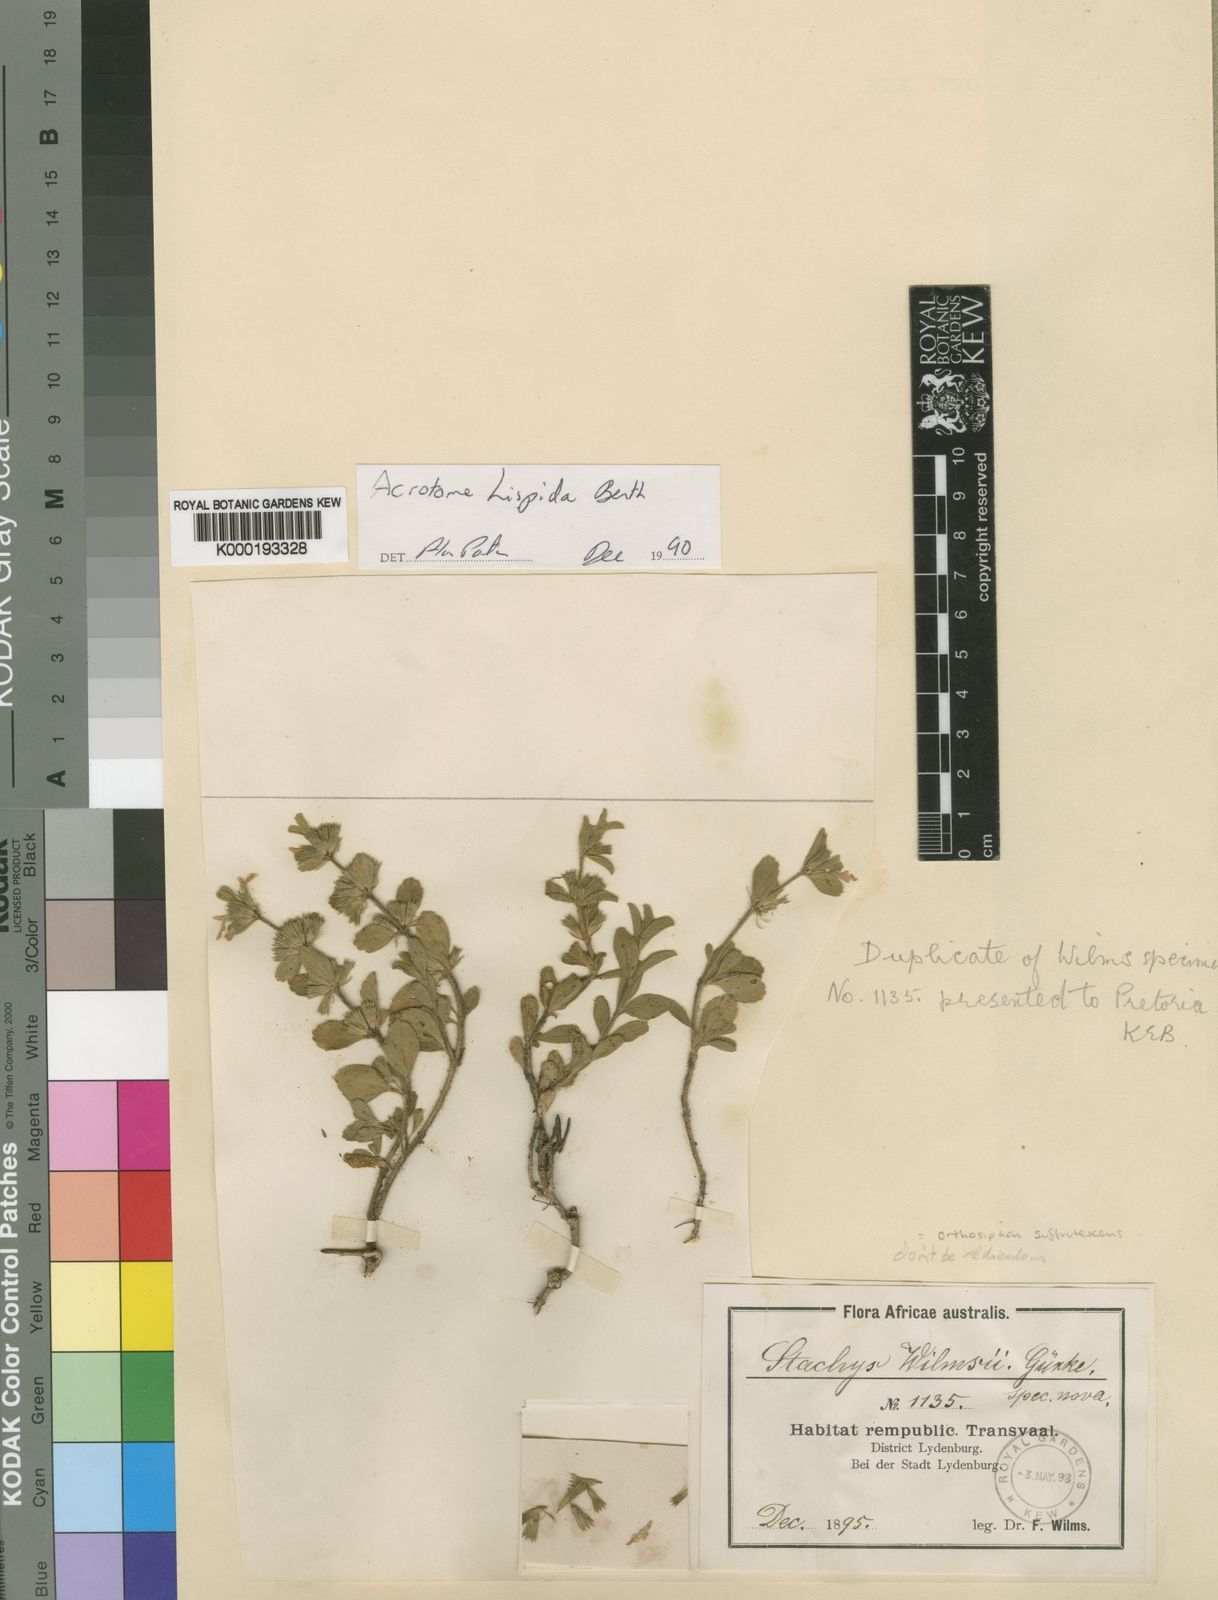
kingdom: Plantae
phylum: Tracheophyta
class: Magnoliopsida
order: Lamiales
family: Lamiaceae
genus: Acrotome
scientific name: Acrotome hispida
